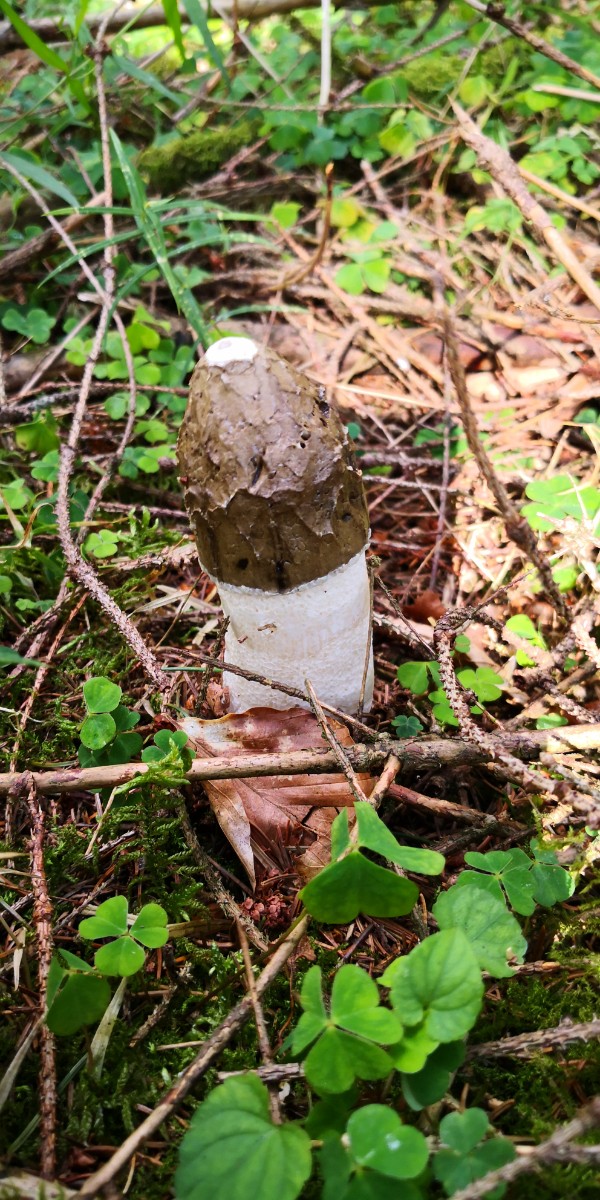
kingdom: Fungi
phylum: Basidiomycota
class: Agaricomycetes
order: Phallales
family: Phallaceae
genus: Phallus
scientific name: Phallus impudicus
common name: almindelig stinksvamp
